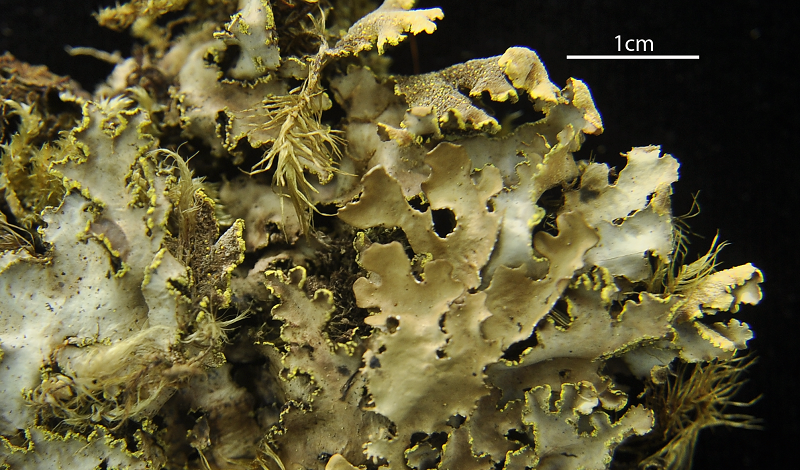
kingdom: Fungi
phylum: Ascomycota
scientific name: Ascomycota
